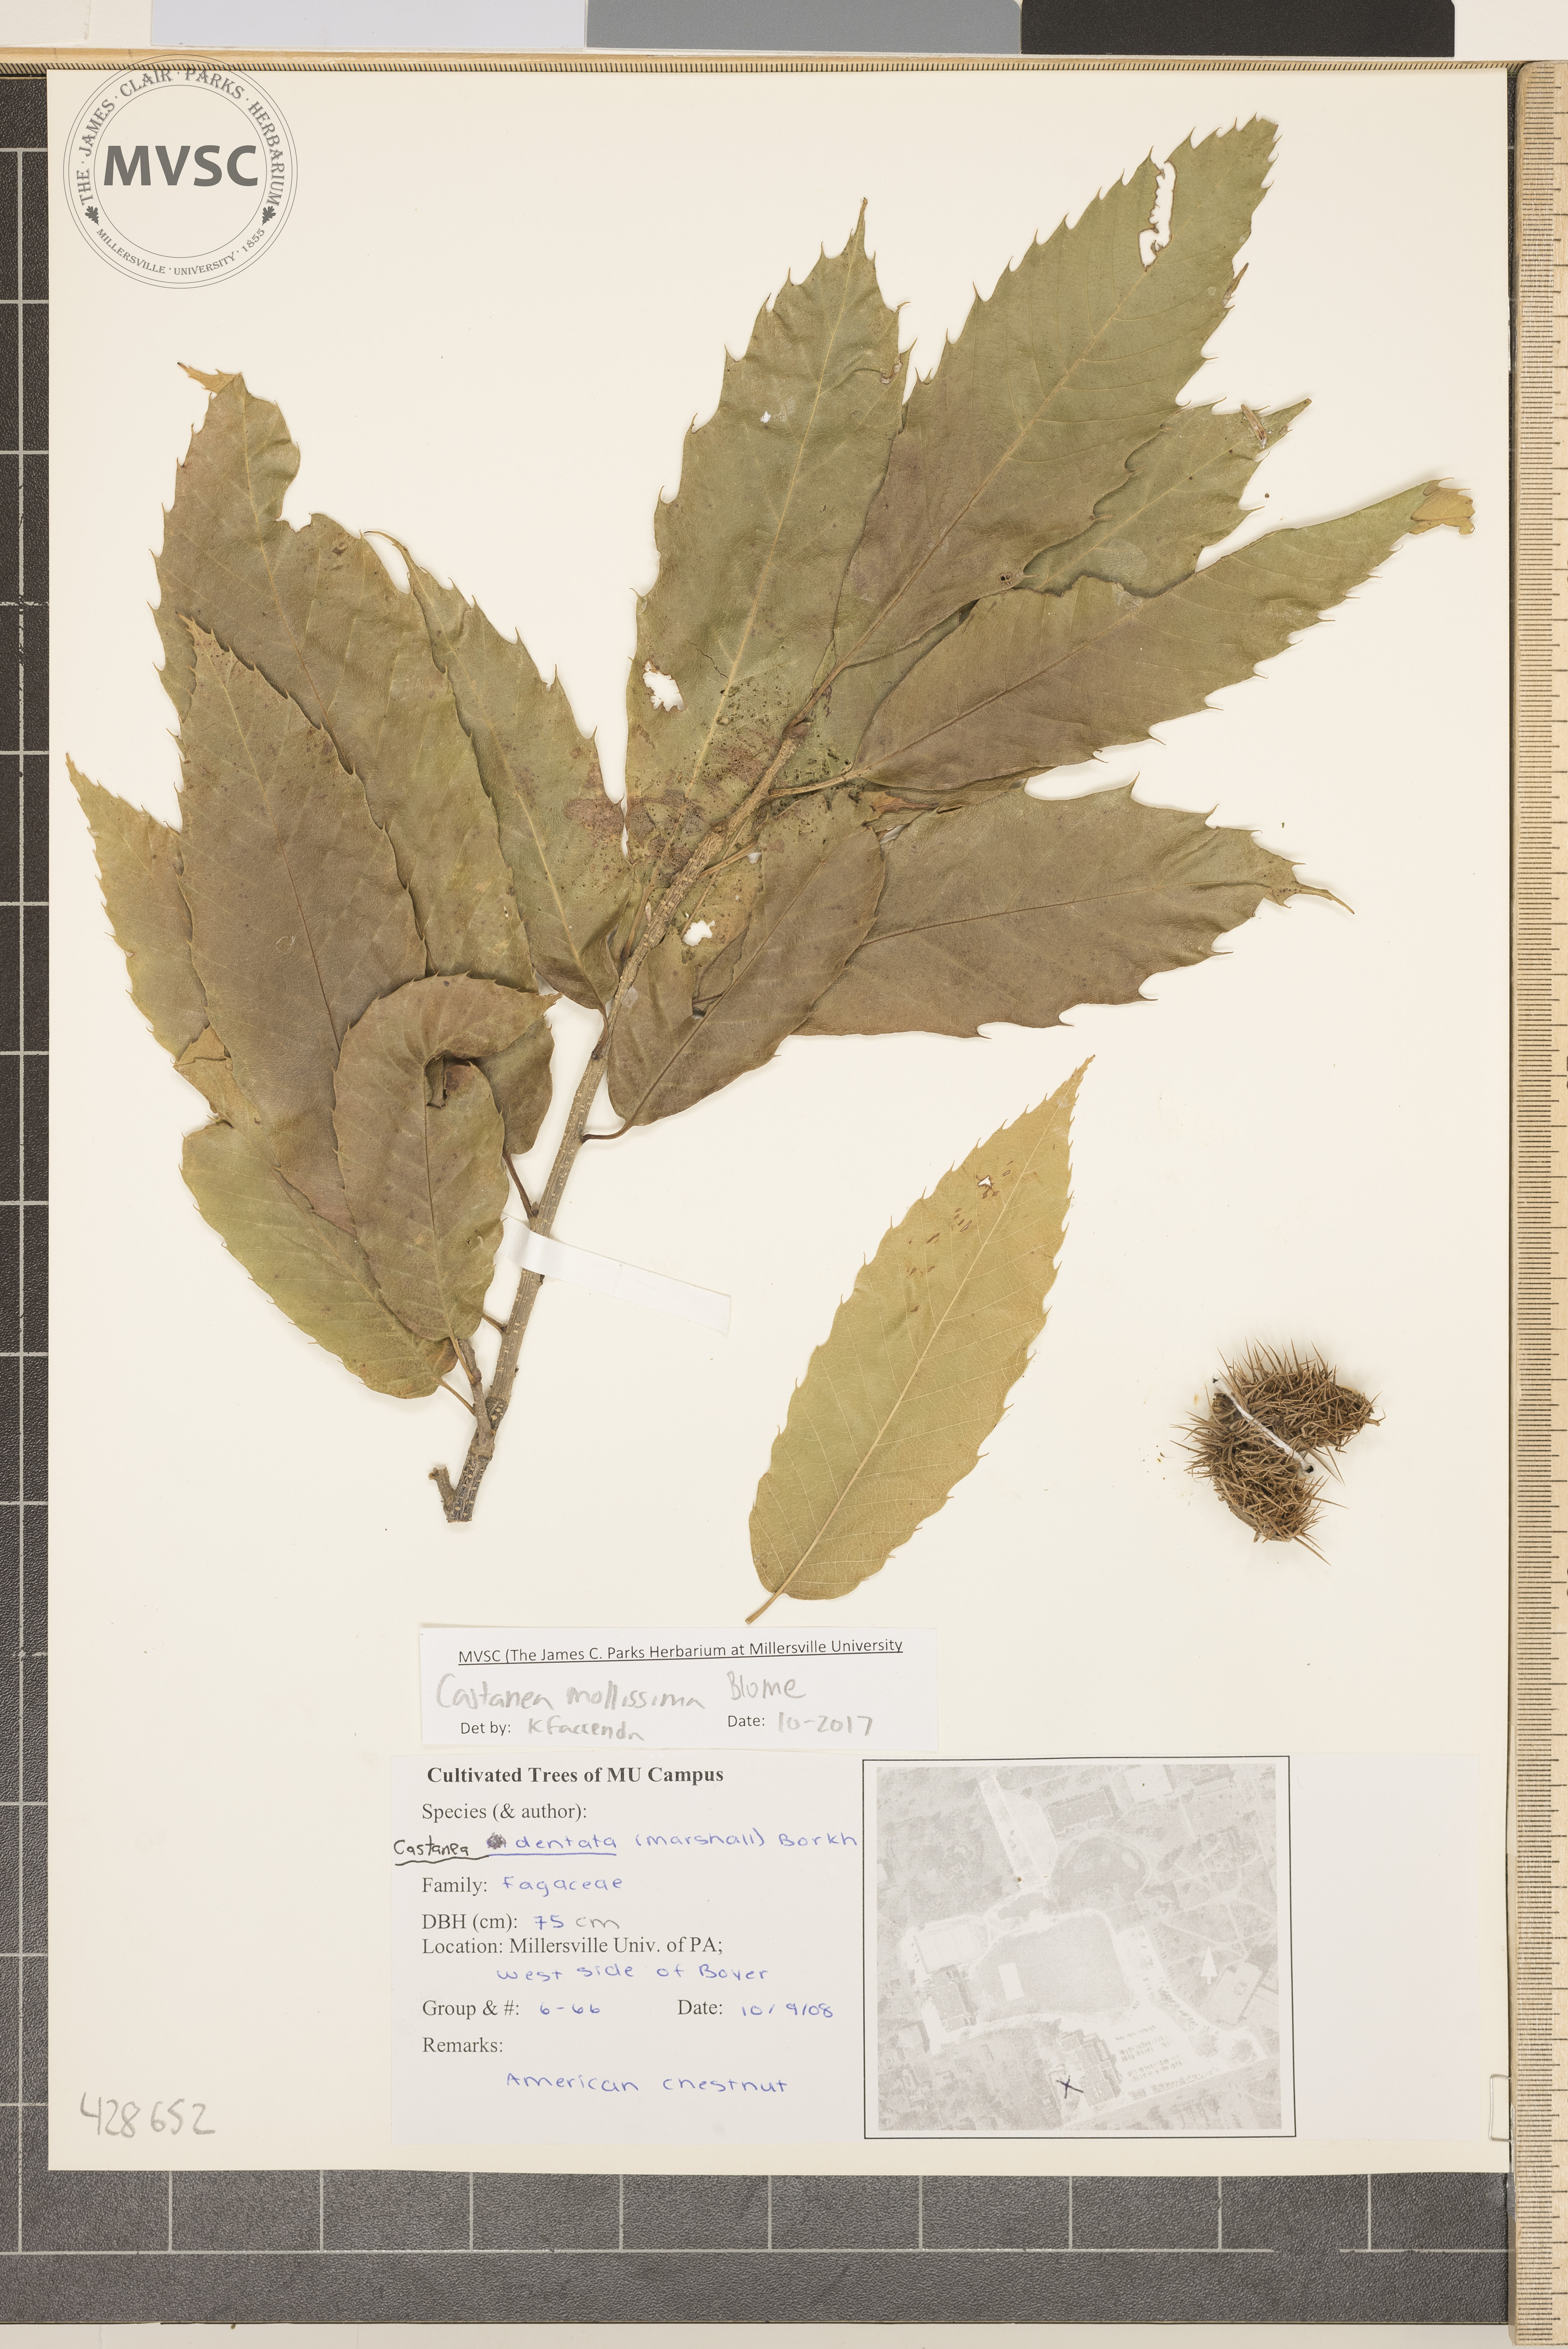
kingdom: Plantae
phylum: Tracheophyta
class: Magnoliopsida
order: Fagales
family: Fagaceae
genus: Castanea
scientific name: Castanea mollissima
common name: Chinese chestnut
